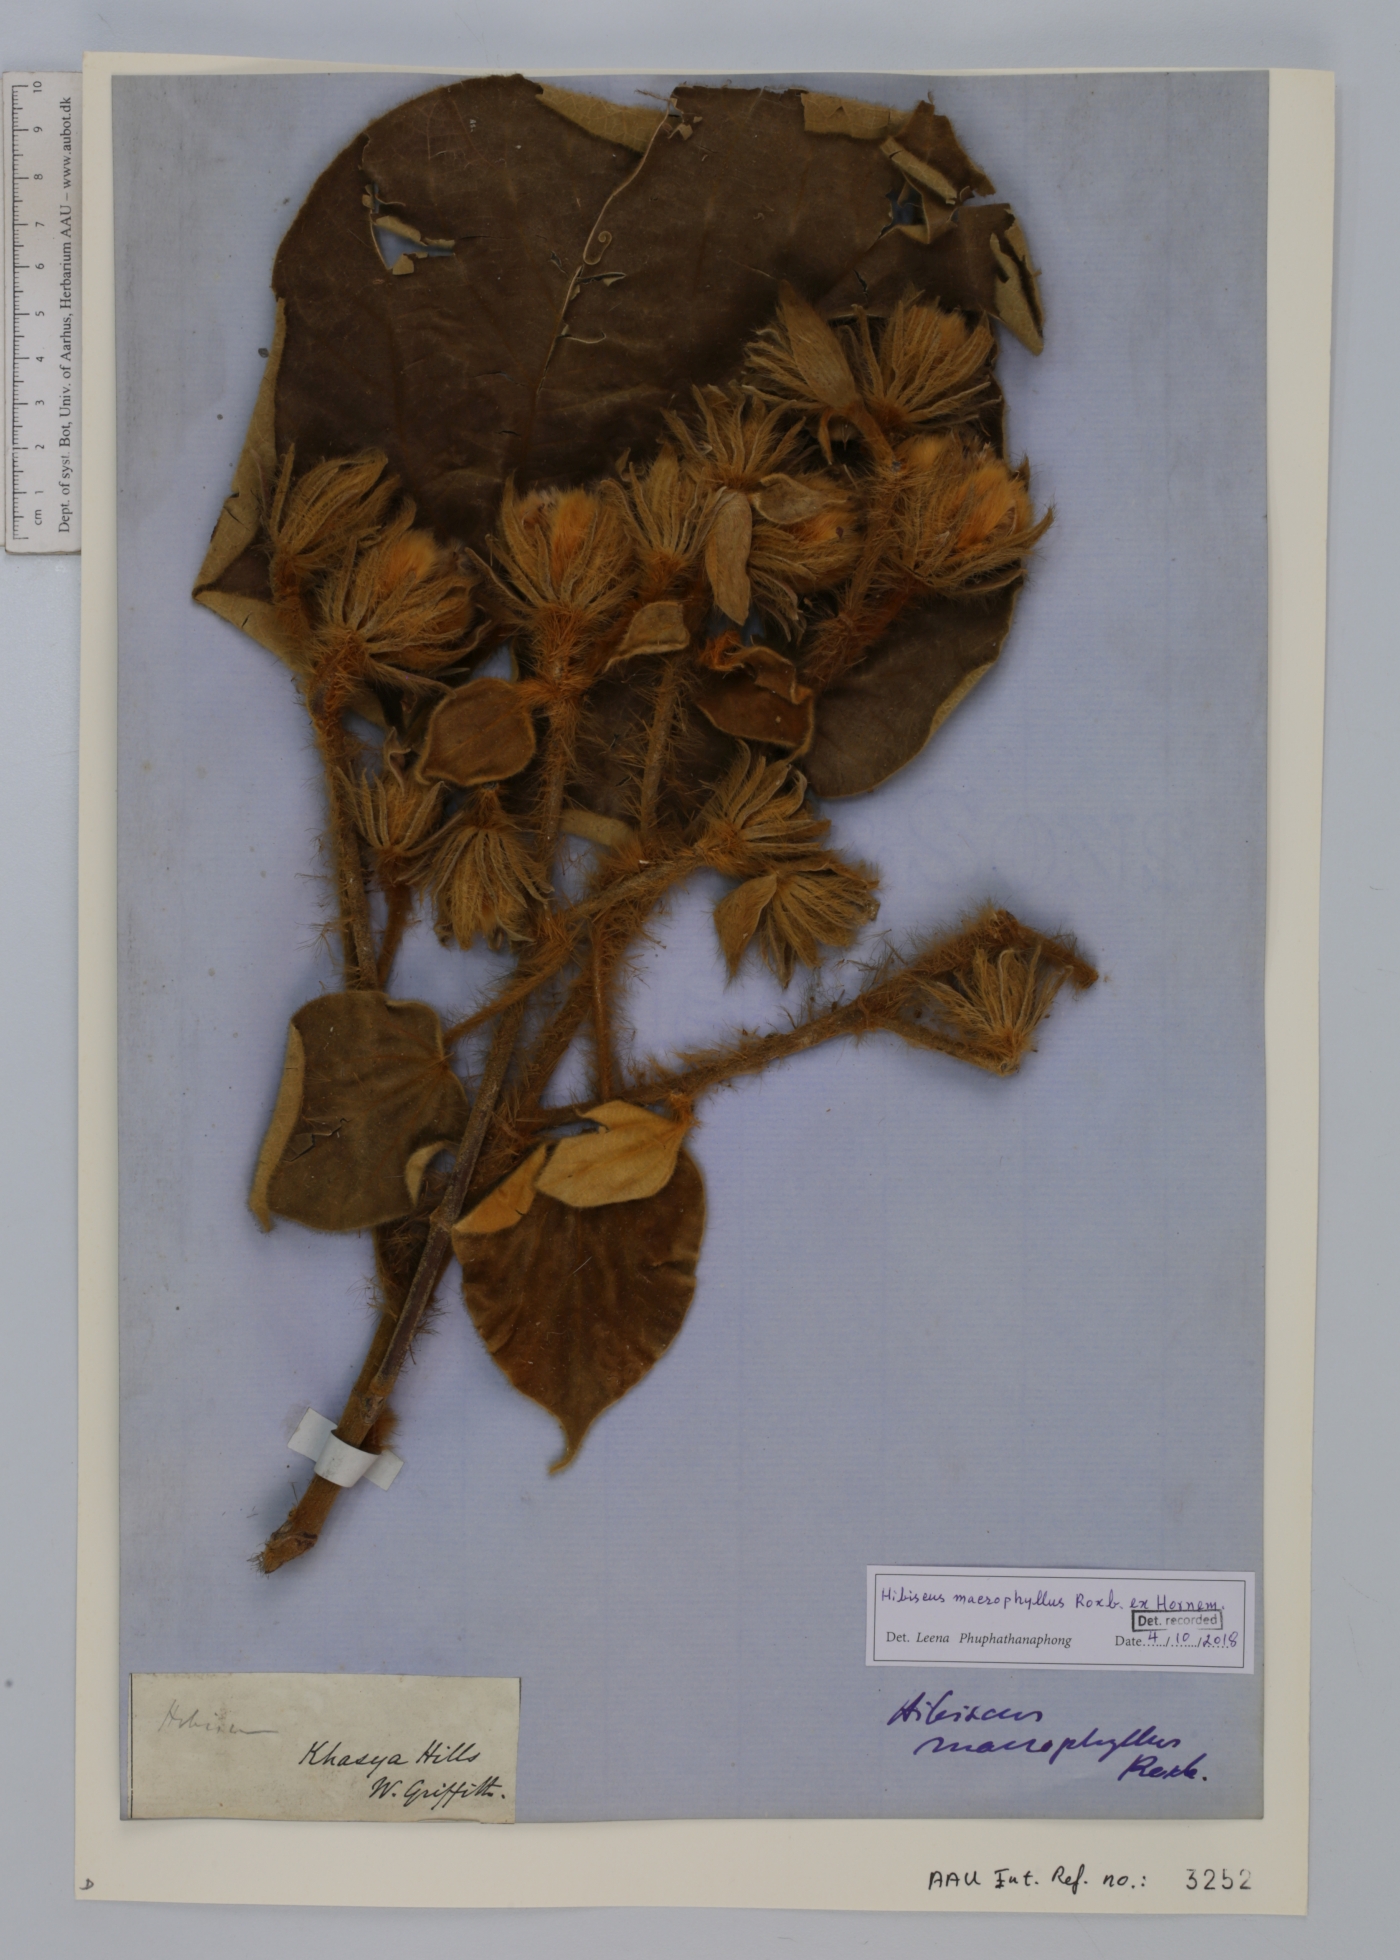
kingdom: Plantae
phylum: Tracheophyta
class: Magnoliopsida
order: Malvales
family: Malvaceae
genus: Talipariti
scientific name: Talipariti macrophyllum
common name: Largeleaf rosemallow
